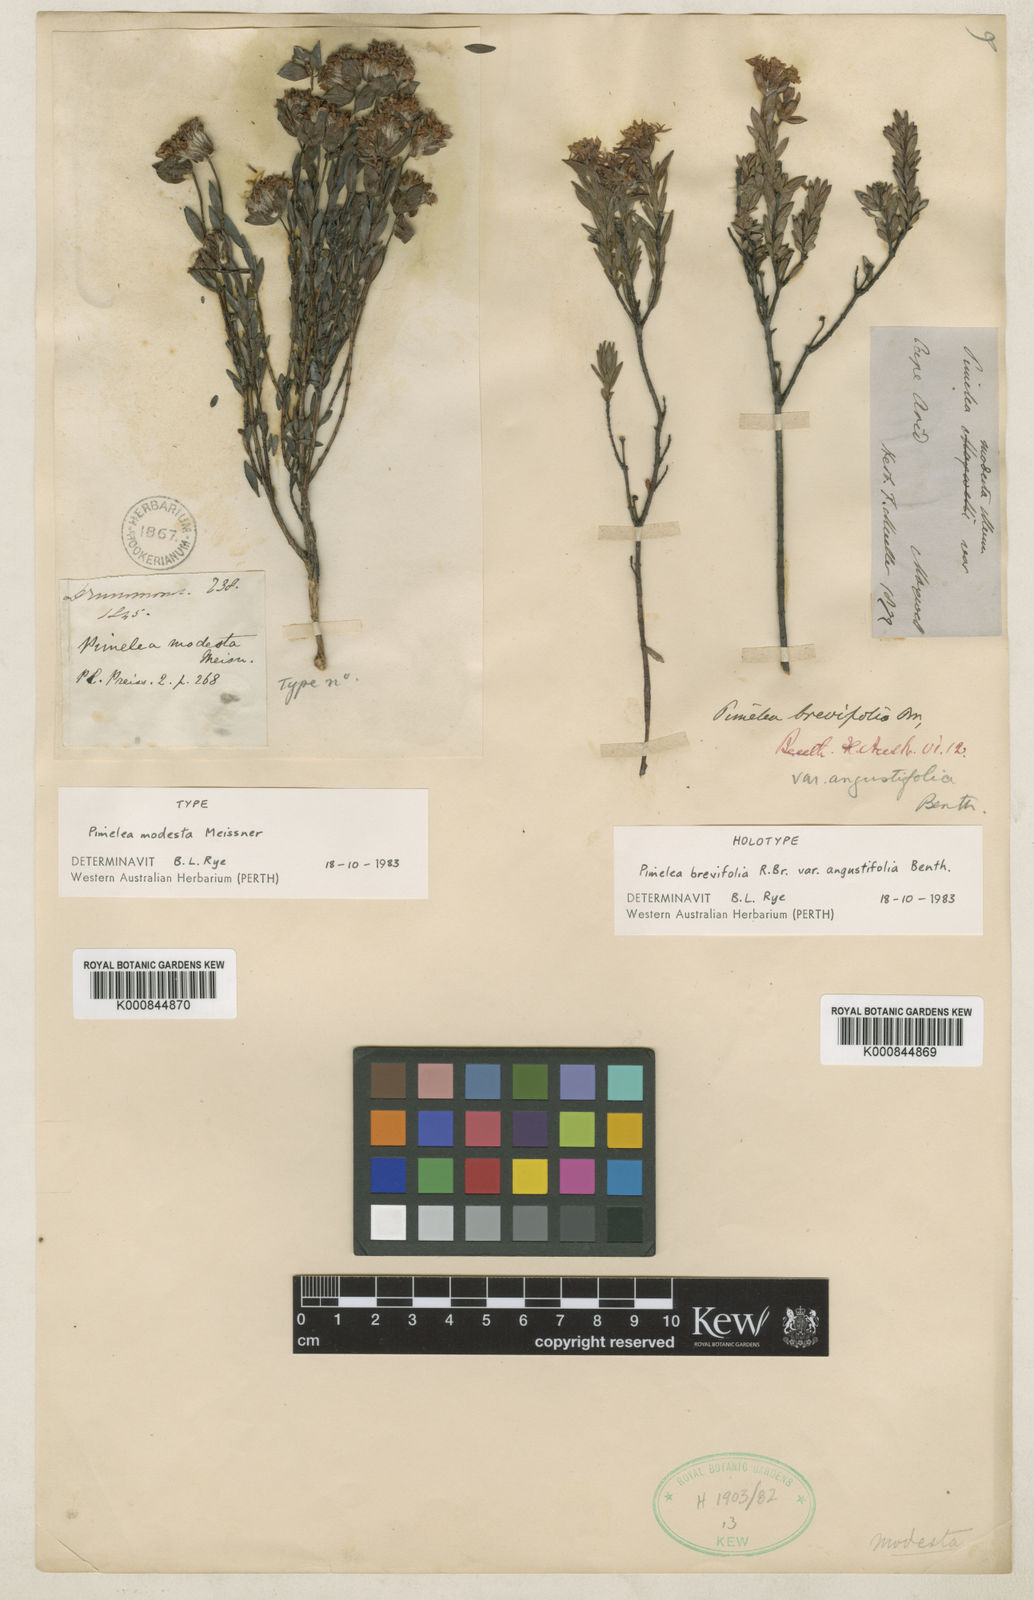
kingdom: Plantae
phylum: Tracheophyta
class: Magnoliopsida
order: Malvales
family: Thymelaeaceae
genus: Pimelea
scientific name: Pimelea brevifolia
